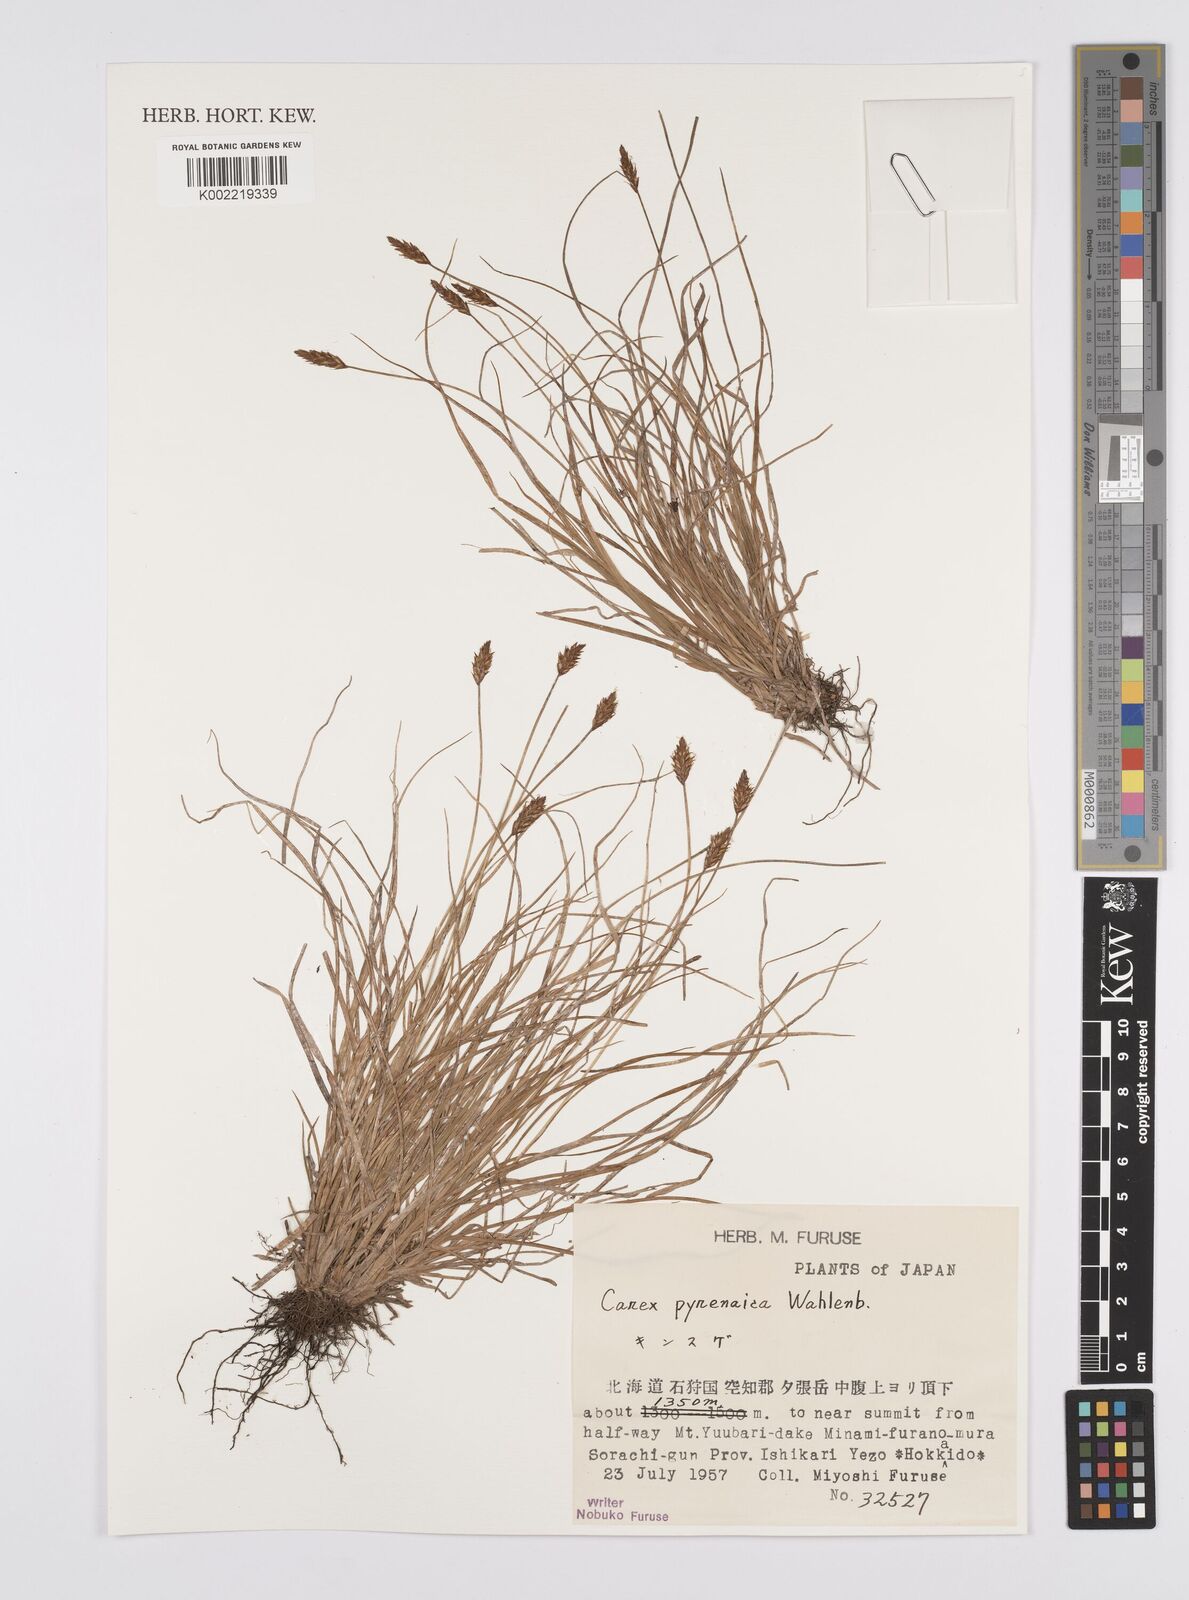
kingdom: Plantae
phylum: Tracheophyta
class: Liliopsida
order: Poales
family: Cyperaceae
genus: Carex
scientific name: Carex pyrenaica
